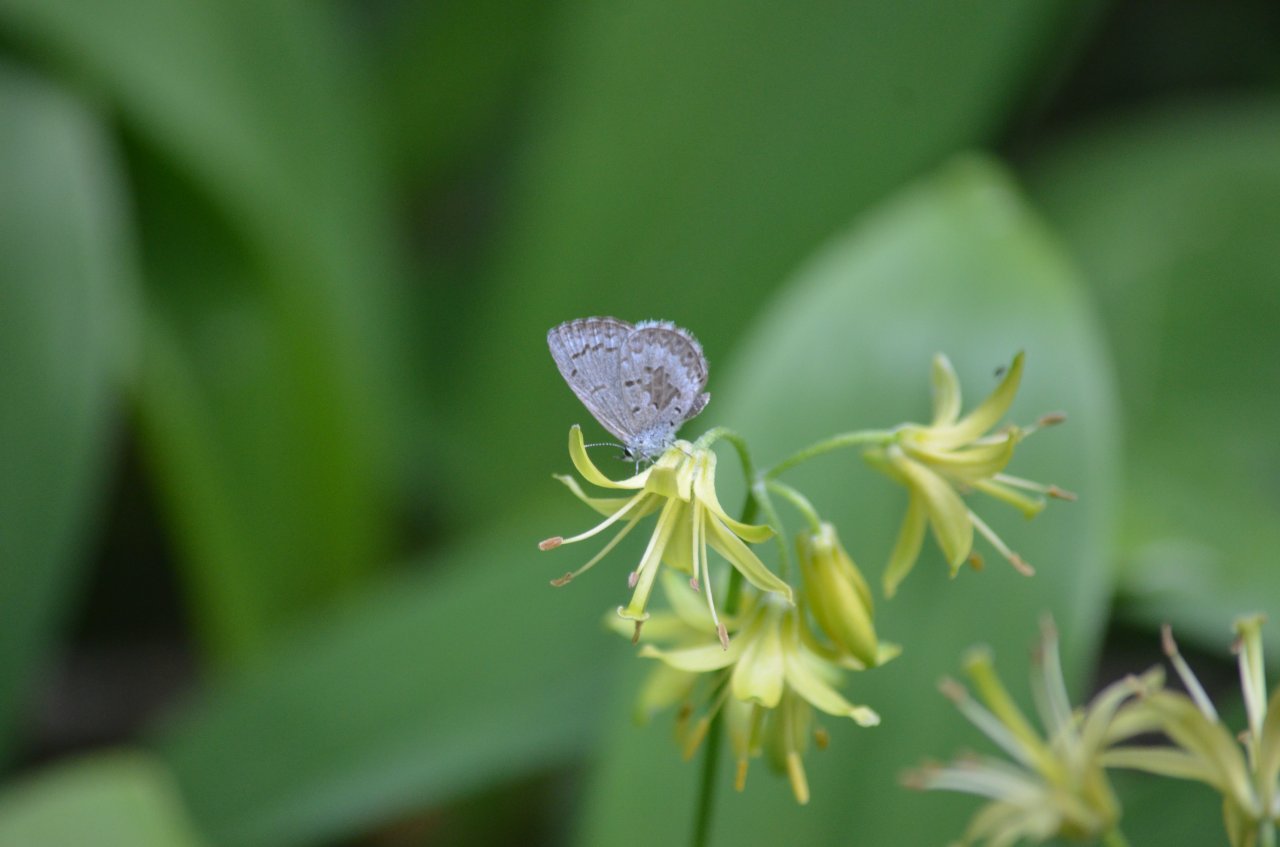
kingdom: Animalia
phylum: Arthropoda
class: Insecta
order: Lepidoptera
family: Lycaenidae
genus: Celastrina
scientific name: Celastrina lucia
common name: Northern Spring Azure
